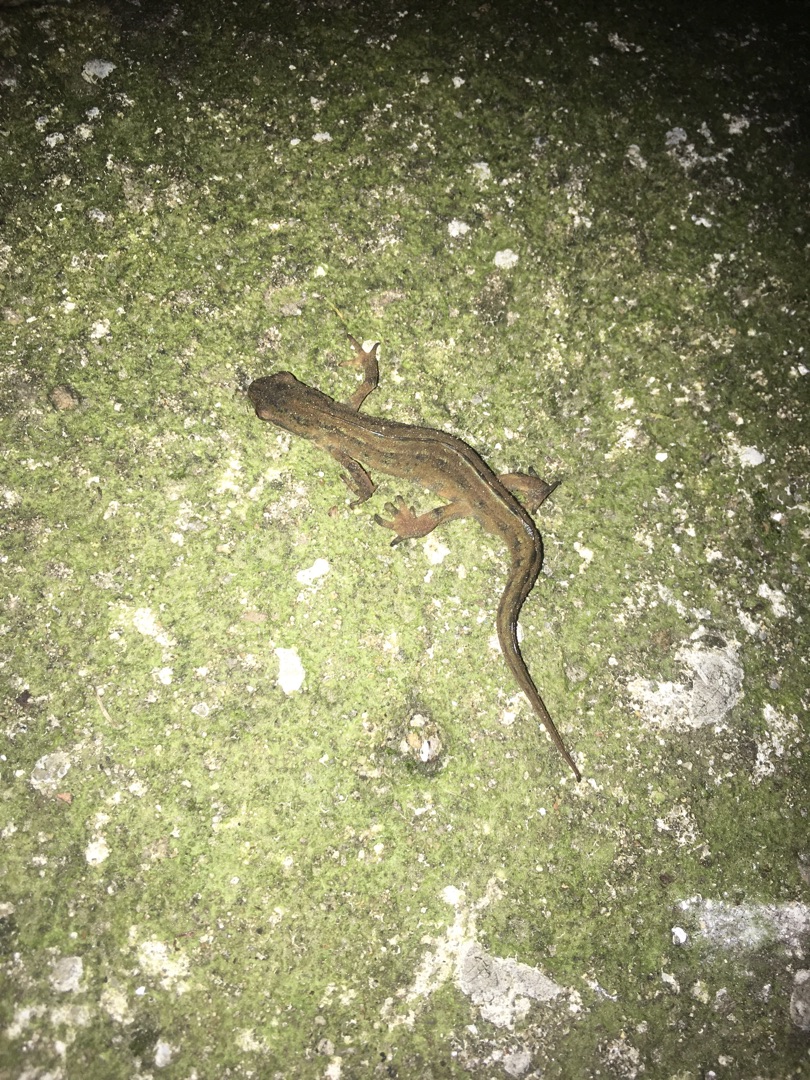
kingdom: Animalia
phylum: Chordata
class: Amphibia
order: Caudata
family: Salamandridae
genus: Lissotriton
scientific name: Lissotriton vulgaris
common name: Lille vandsalamander
